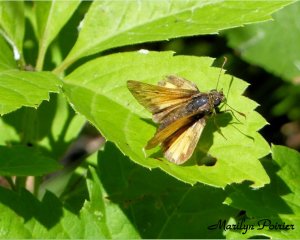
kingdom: Animalia
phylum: Arthropoda
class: Insecta
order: Lepidoptera
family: Hesperiidae
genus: Lon
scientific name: Lon hobomok
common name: Hobomok Skipper
